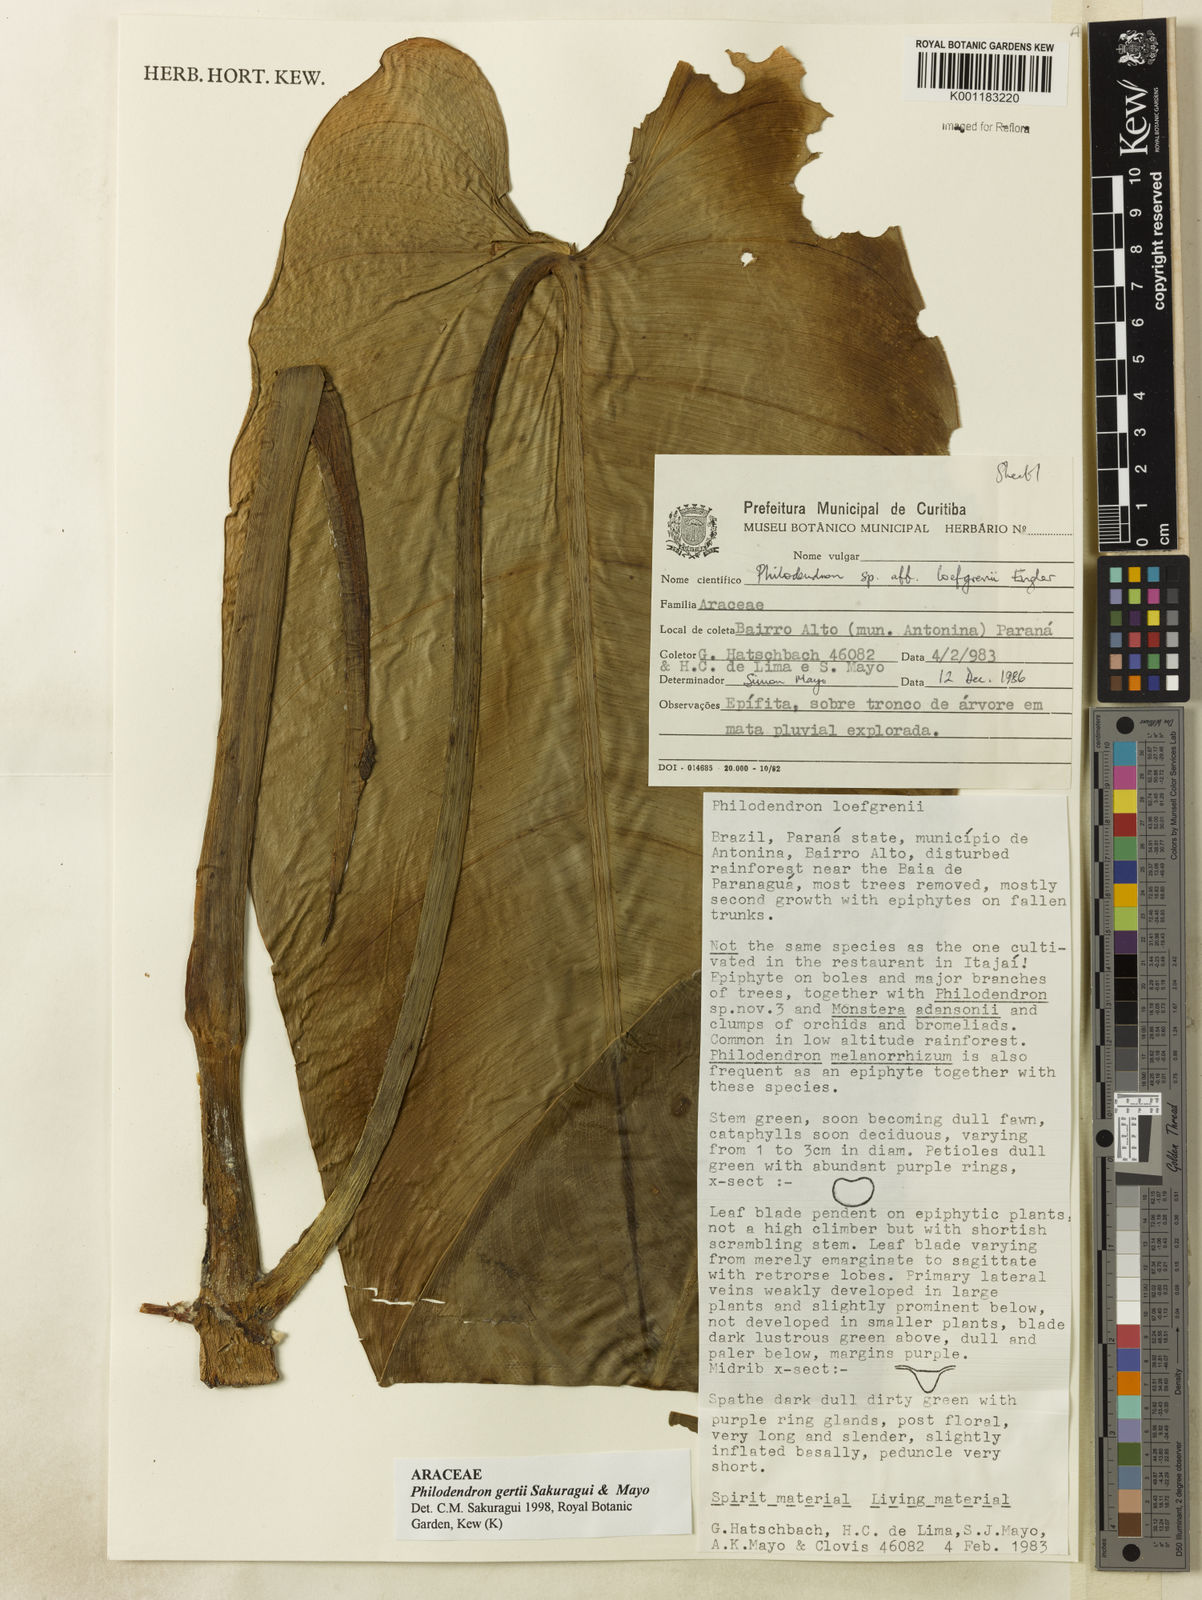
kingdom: Plantae
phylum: Tracheophyta
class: Liliopsida
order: Alismatales
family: Araceae
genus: Philodendron
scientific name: Philodendron
